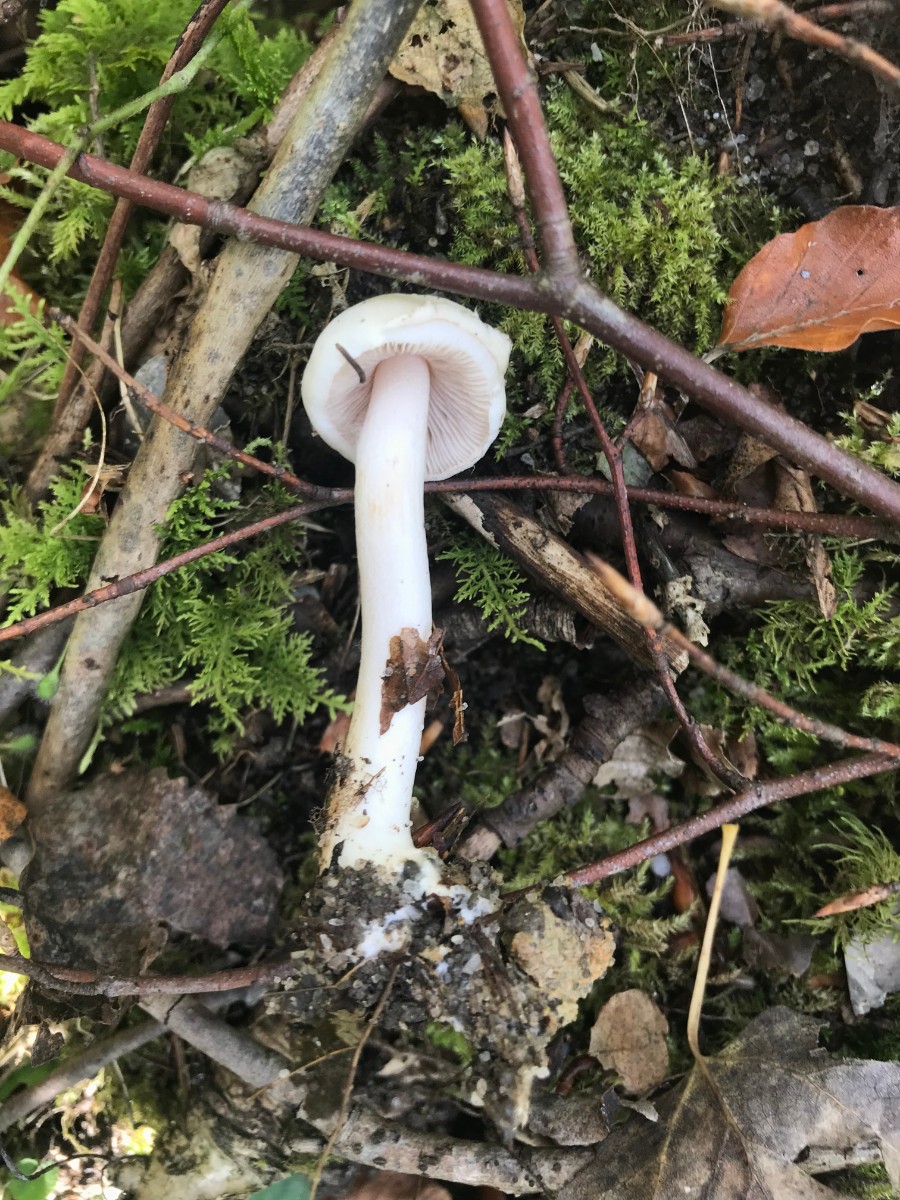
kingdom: Fungi
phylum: Basidiomycota
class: Agaricomycetes
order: Agaricales
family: Inocybaceae
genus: Inocybe
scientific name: Inocybe
